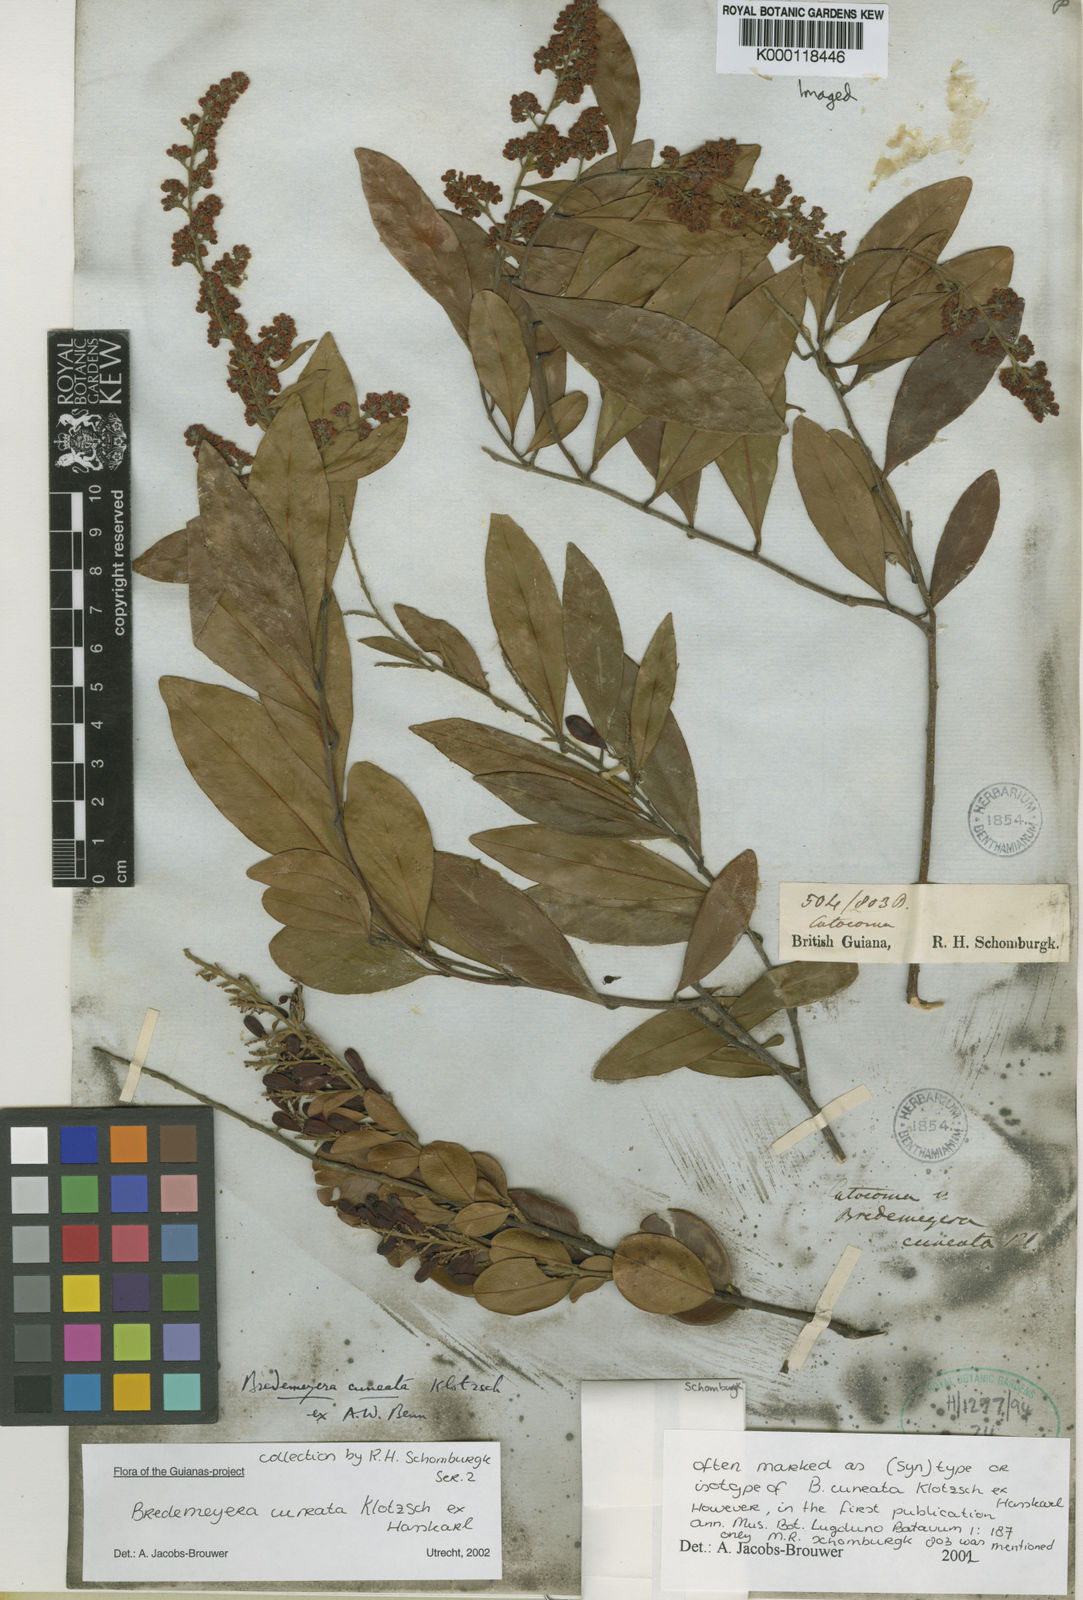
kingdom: Plantae
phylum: Tracheophyta
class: Magnoliopsida
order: Fabales
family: Polygalaceae
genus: Bredemeyera
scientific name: Bredemeyera
